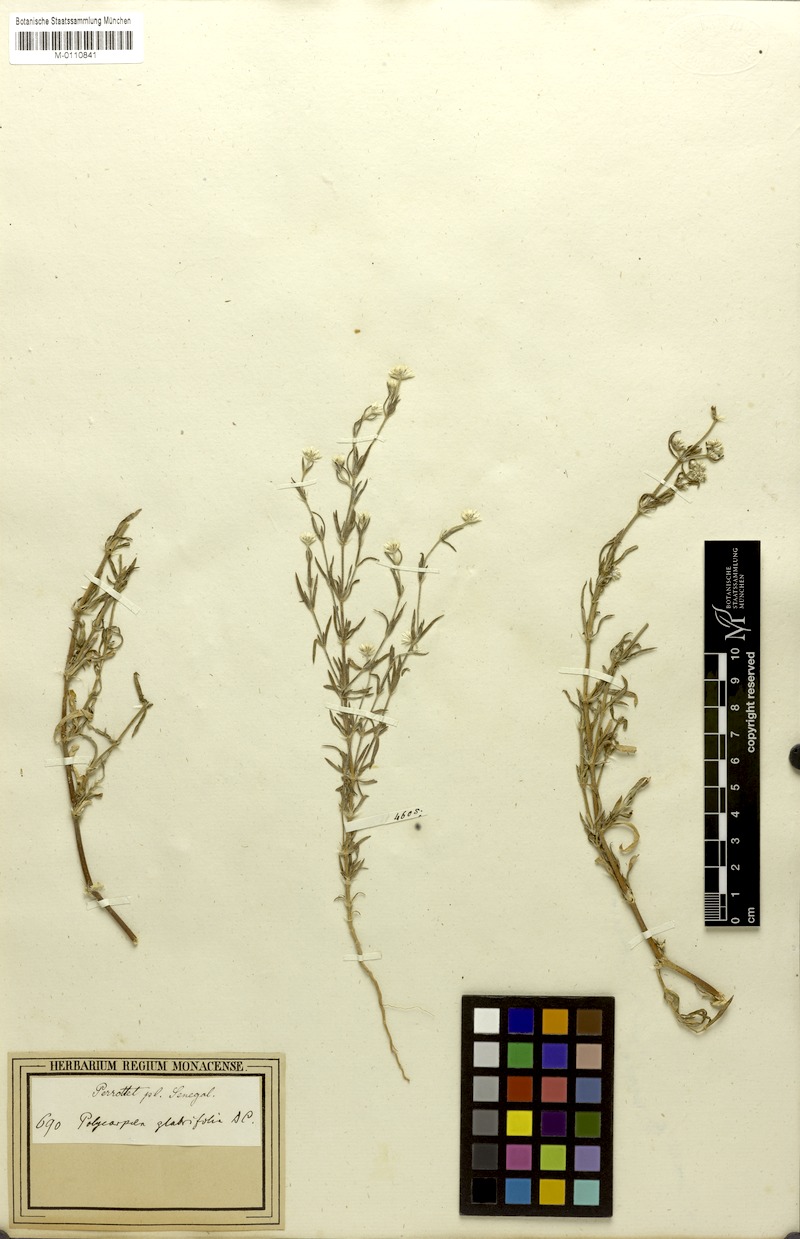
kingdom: Plantae
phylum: Tracheophyta
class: Magnoliopsida
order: Caryophyllales
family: Caryophyllaceae
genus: Polycarpaea
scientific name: Polycarpaea corymbosa
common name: Oldman's cap
